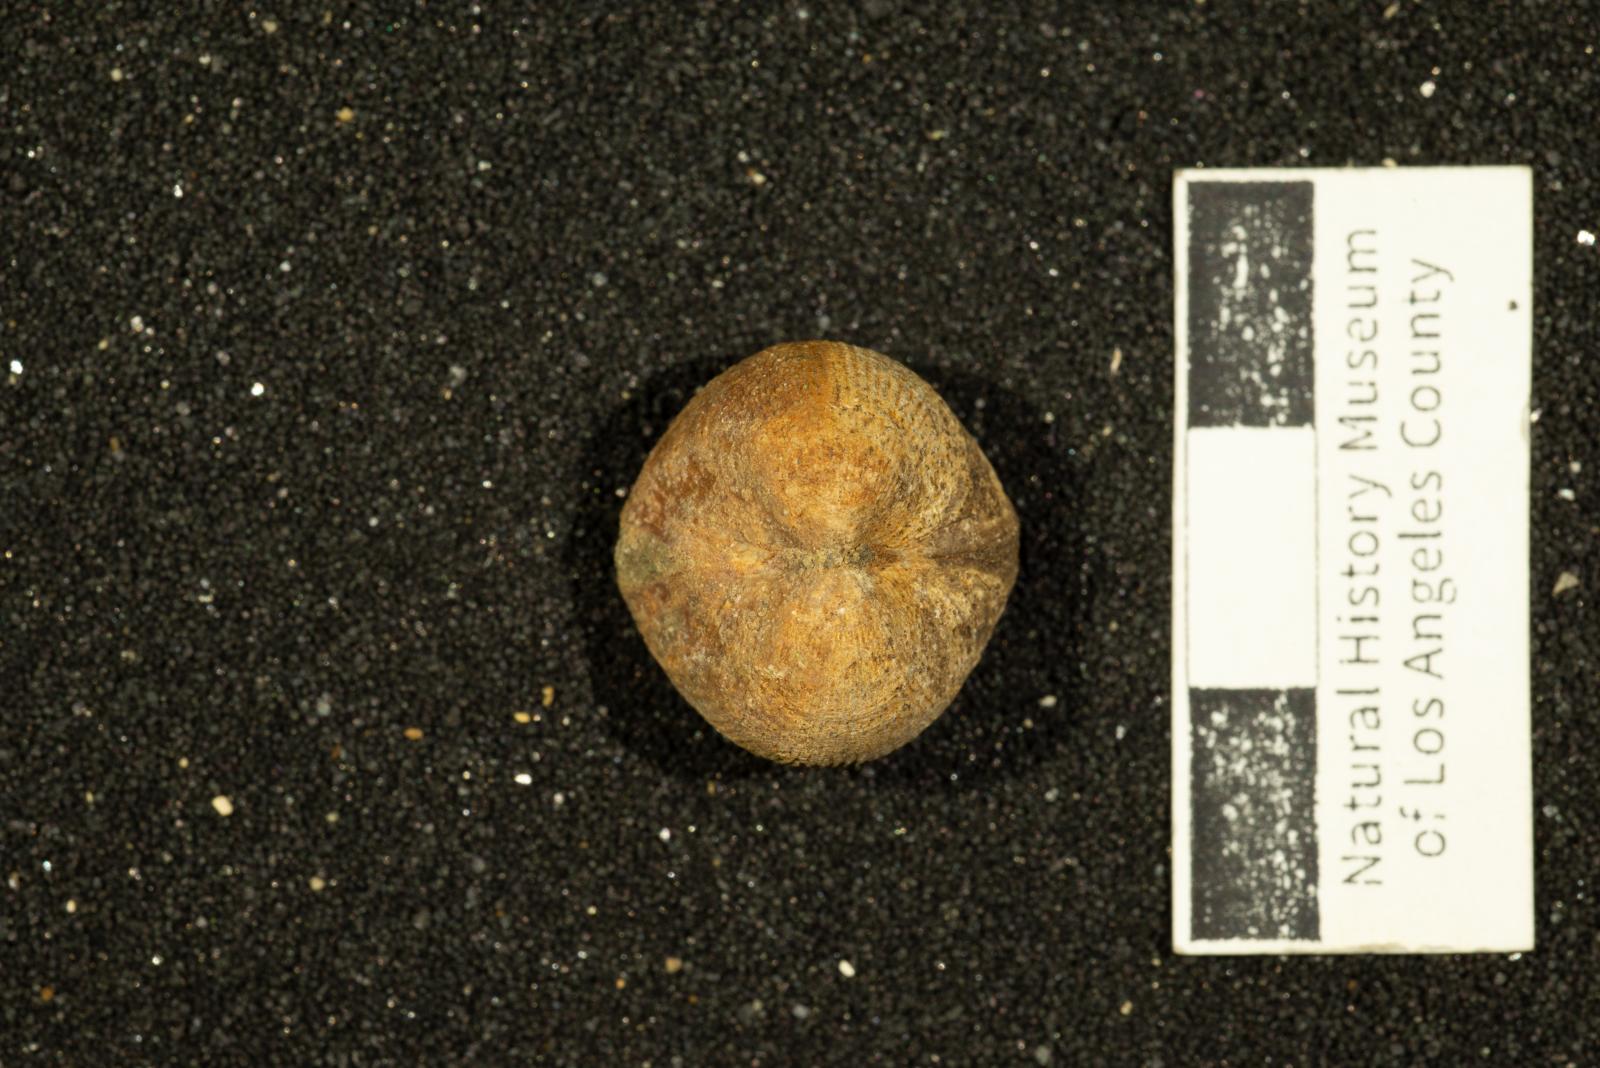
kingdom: Animalia
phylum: Mollusca
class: Bivalvia
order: Arcida
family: Glycymerididae
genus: Glycymerita
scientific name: Glycymerita Axinaea veatchii
